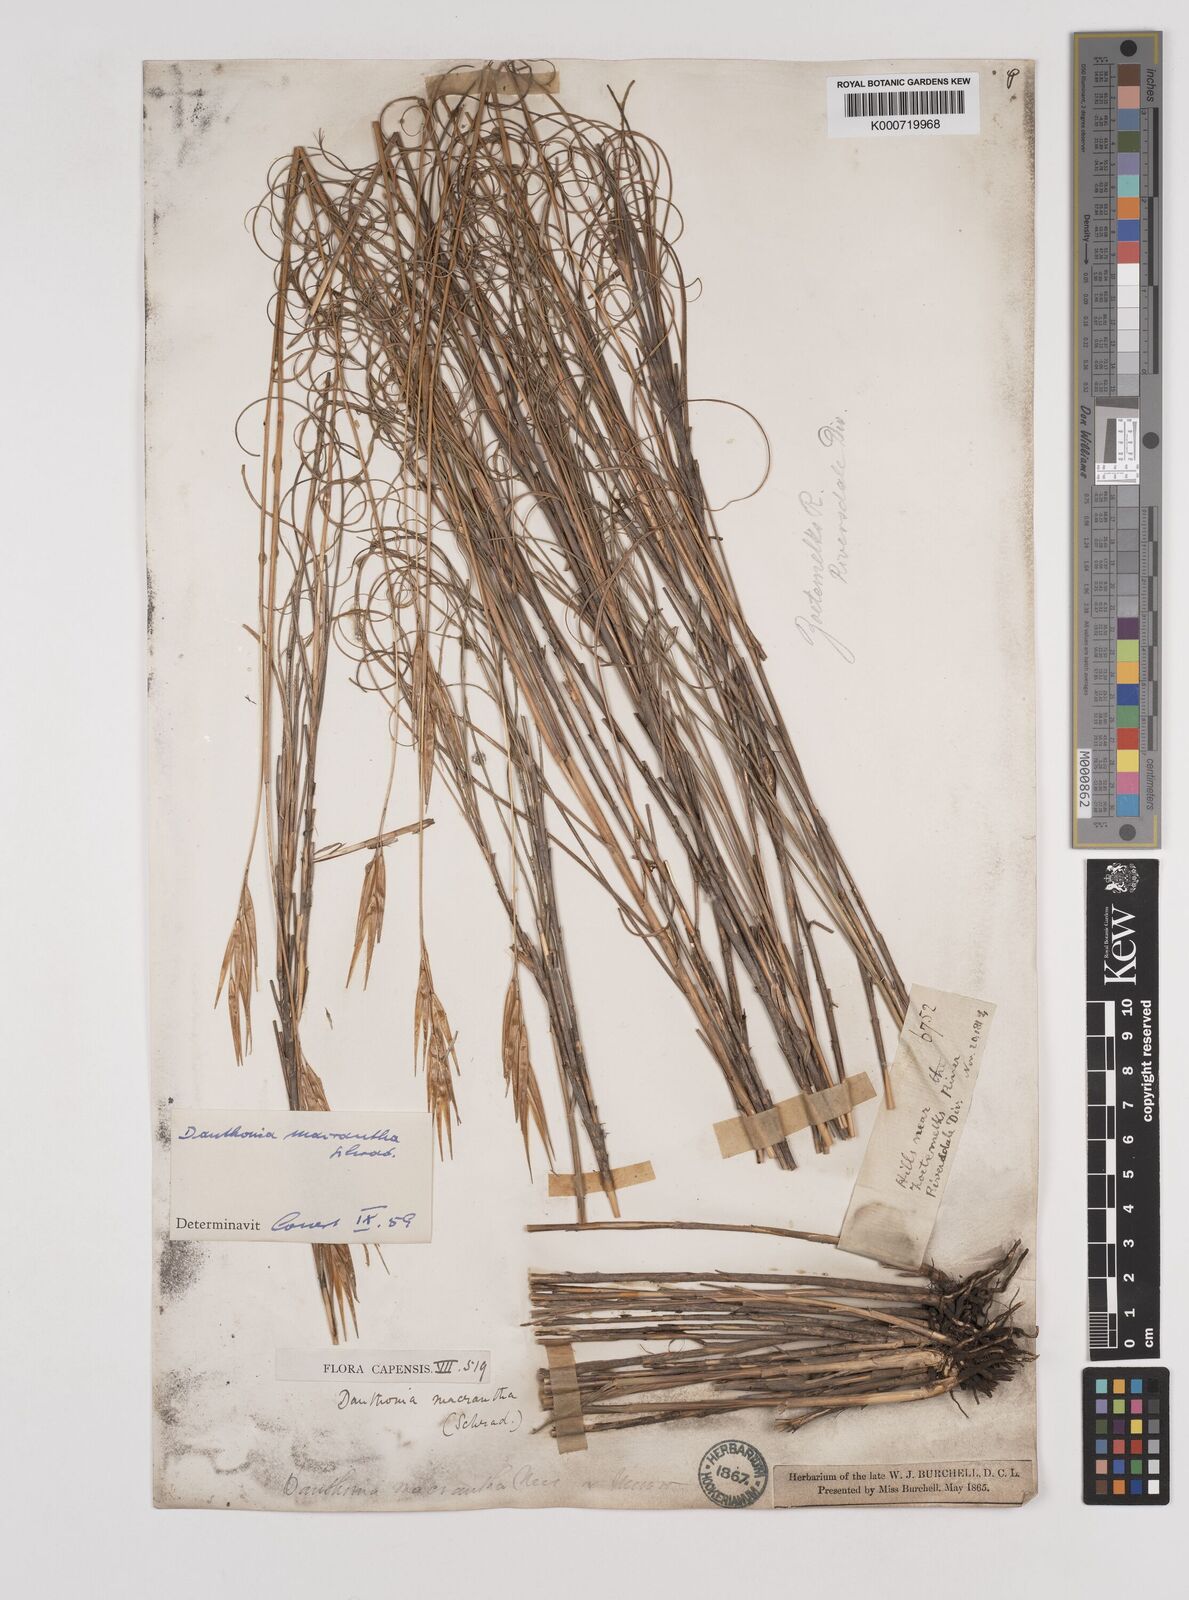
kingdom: Plantae
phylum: Tracheophyta
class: Liliopsida
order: Poales
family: Poaceae
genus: Pseudopentameris
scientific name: Pseudopentameris macrantha
